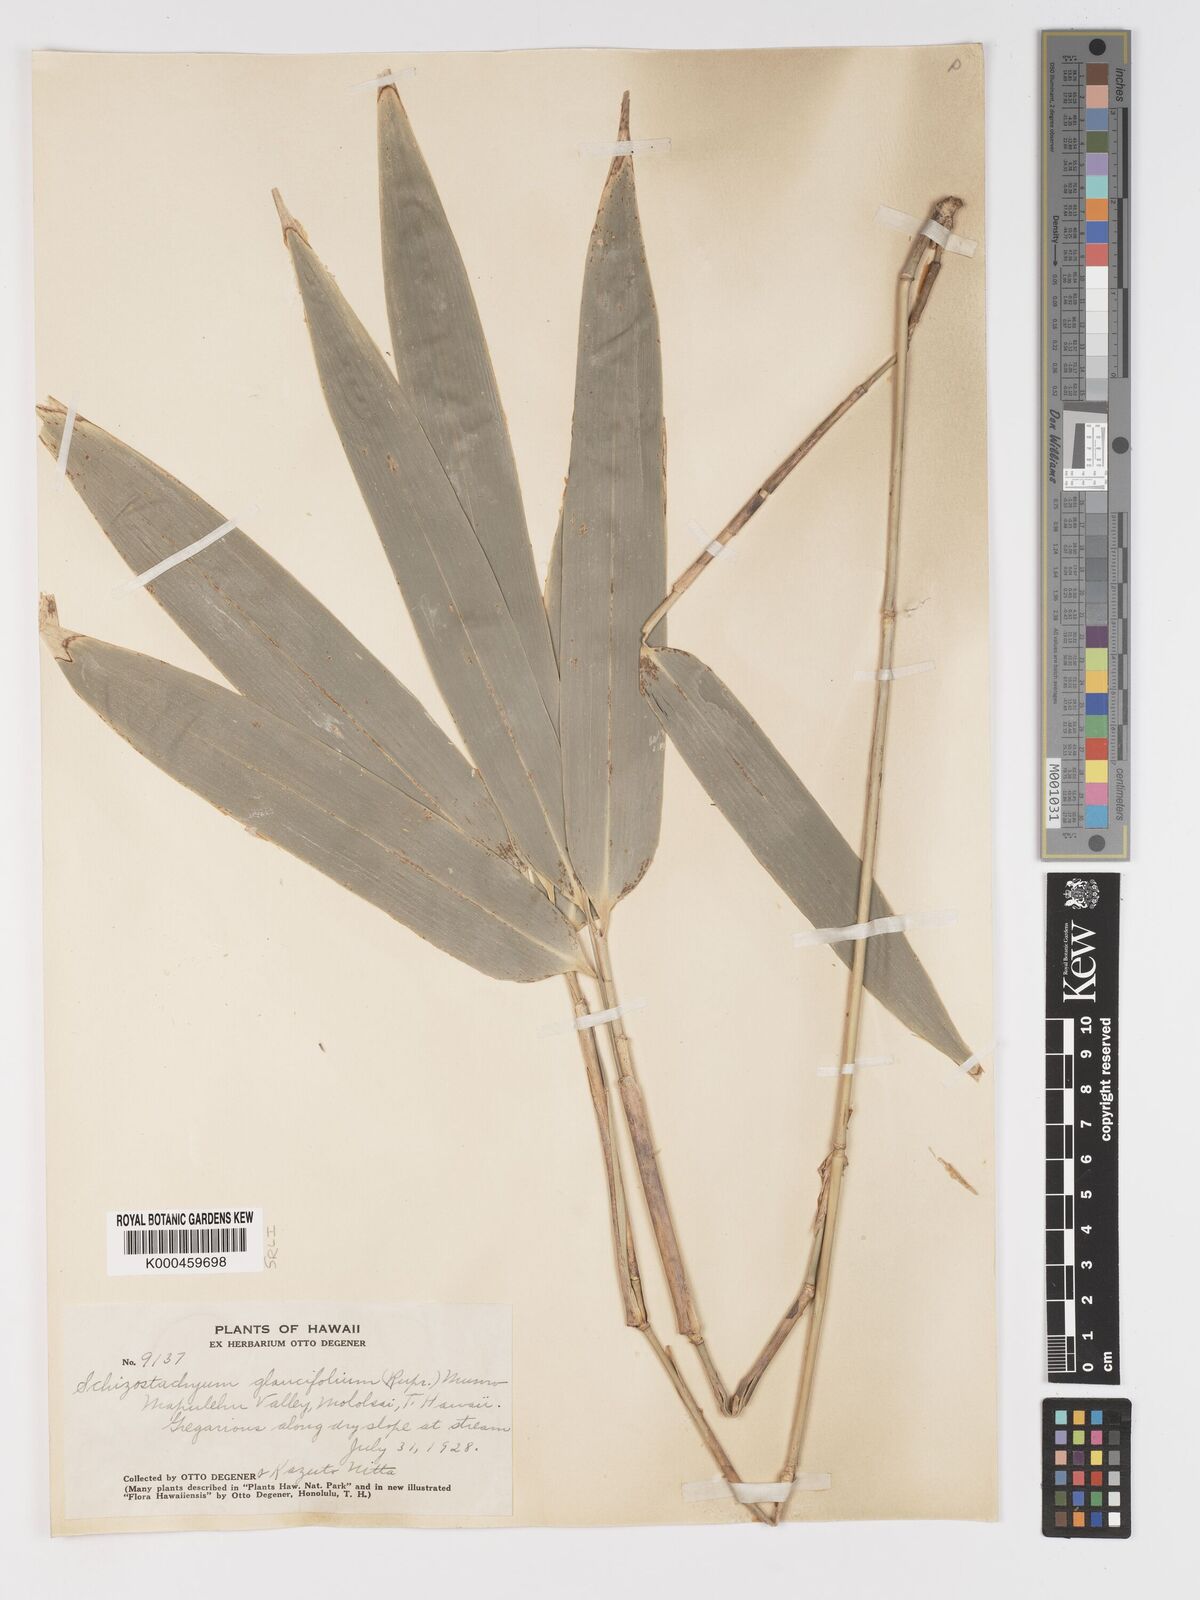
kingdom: Plantae
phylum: Tracheophyta
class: Liliopsida
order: Poales
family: Poaceae
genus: Schizostachyum
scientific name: Schizostachyum glaucifolium
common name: Polynesian 'ohe
